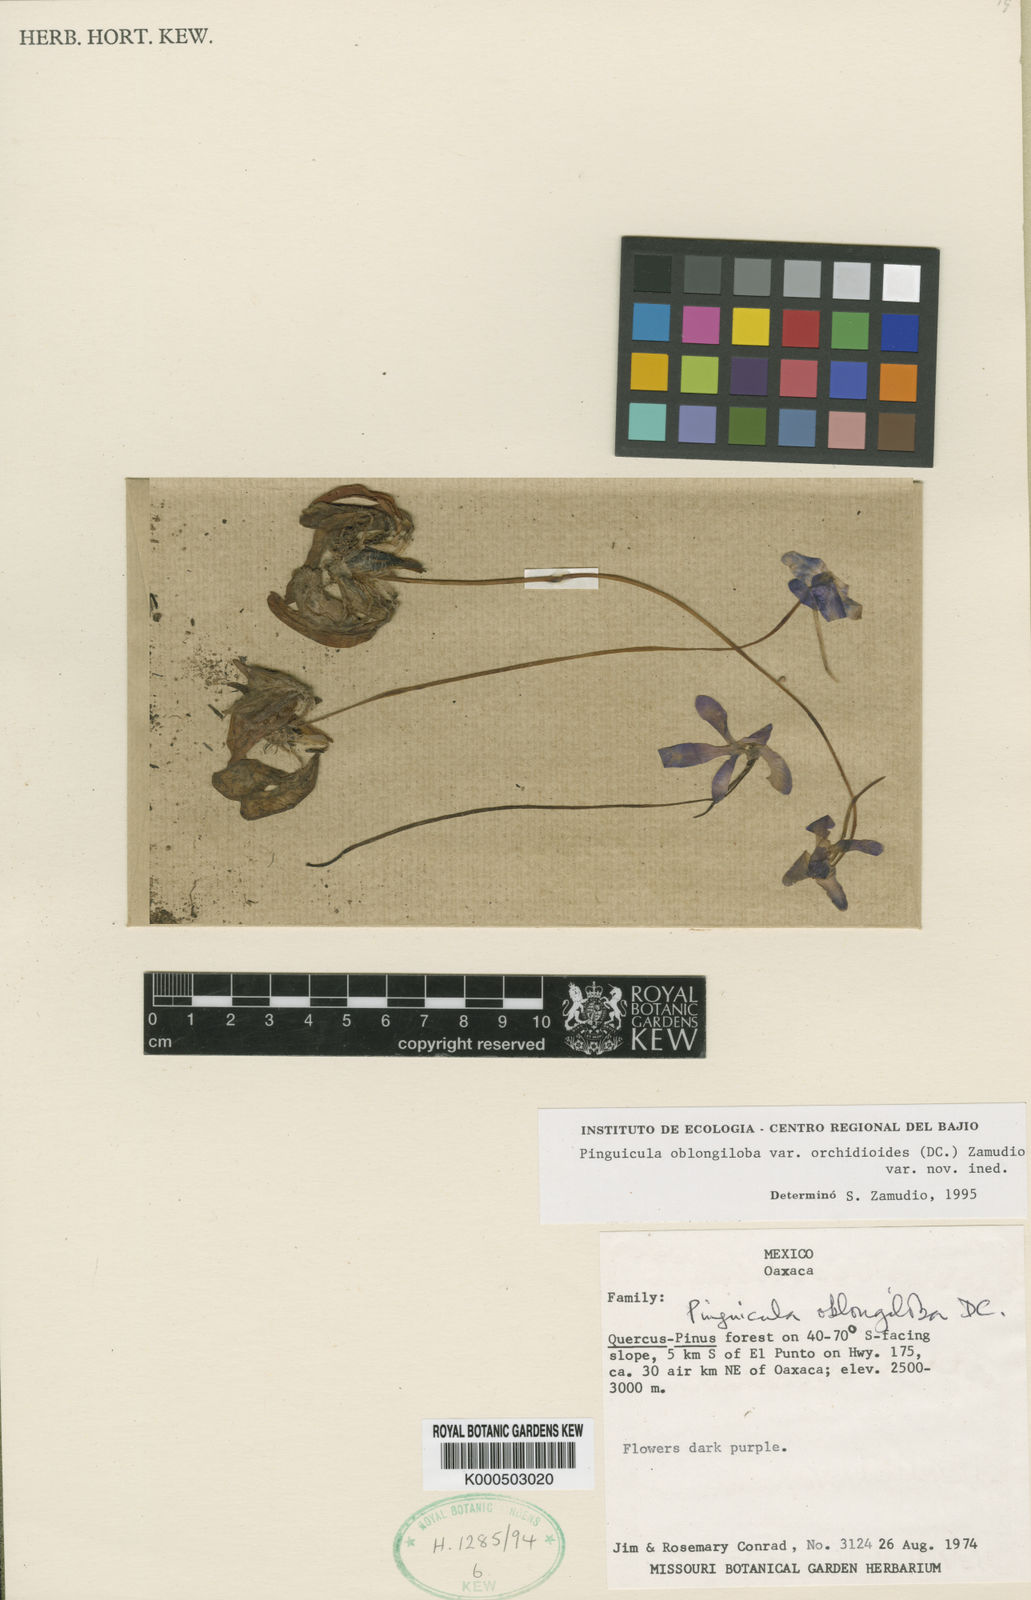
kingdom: Plantae
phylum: Tracheophyta
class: Magnoliopsida
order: Lamiales
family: Lentibulariaceae
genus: Pinguicula
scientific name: Pinguicula
